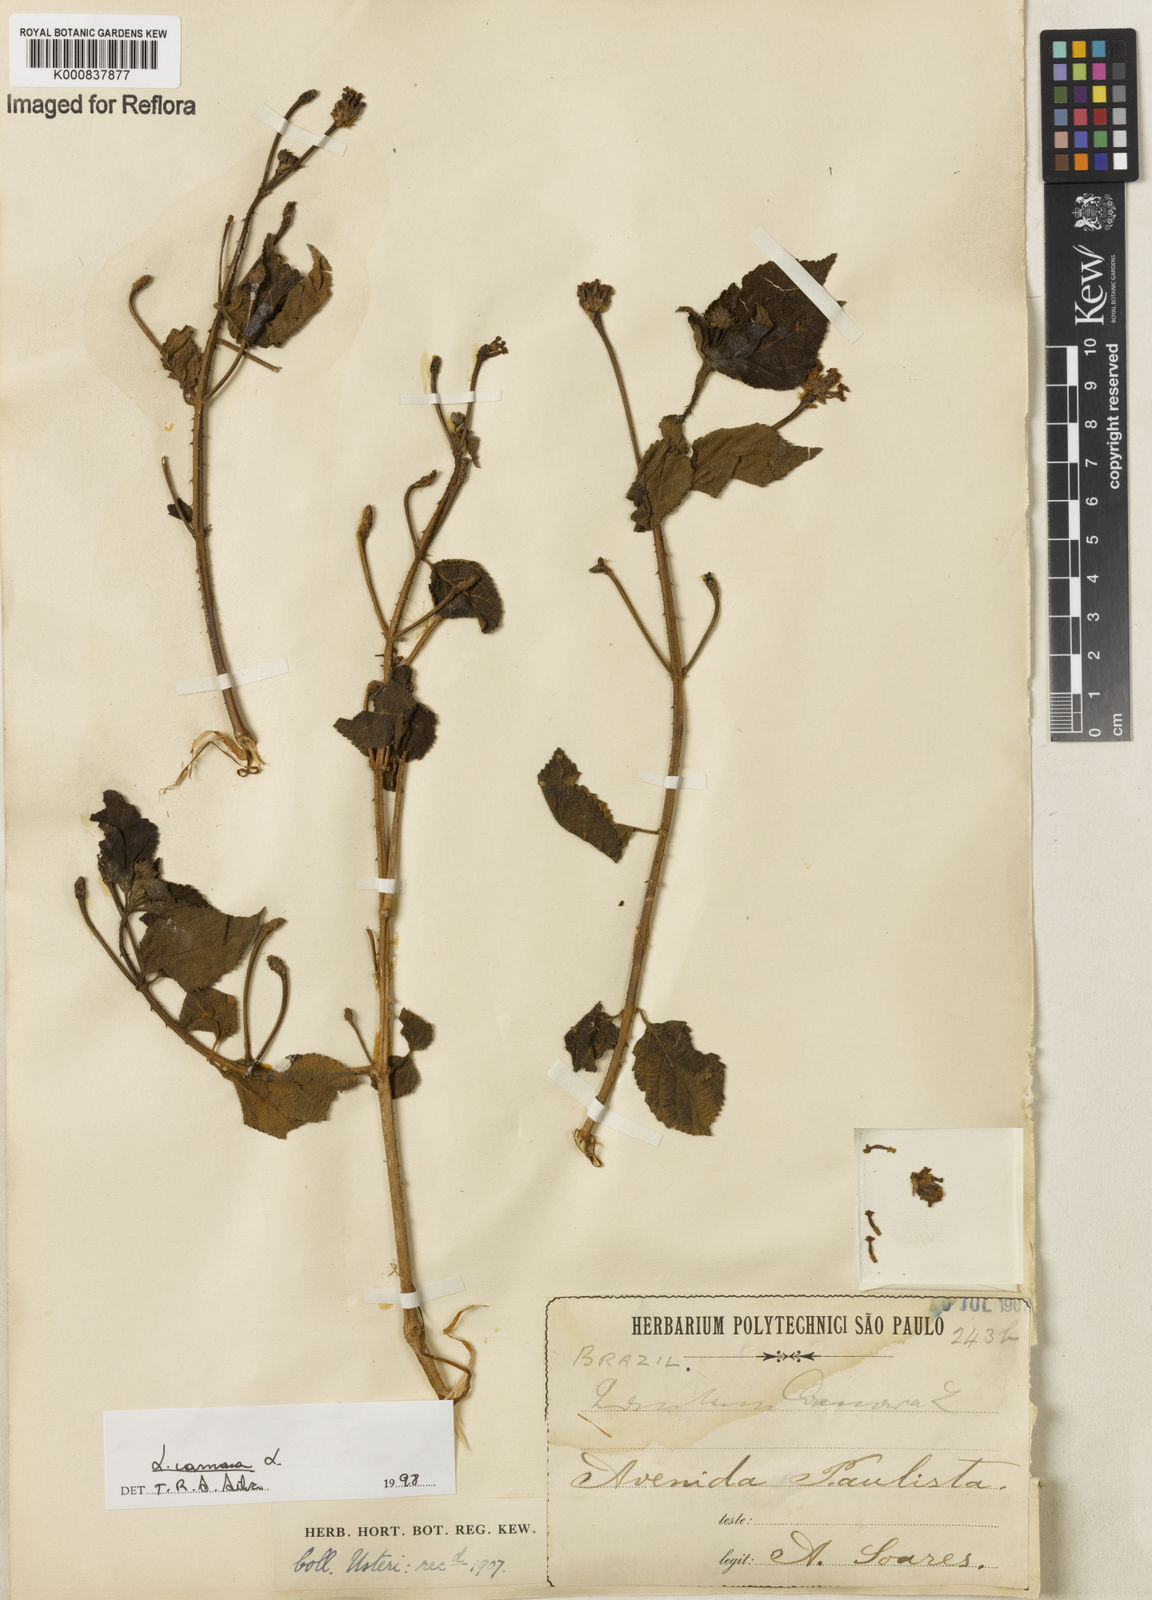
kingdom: Plantae
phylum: Tracheophyta
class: Magnoliopsida
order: Lamiales
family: Verbenaceae
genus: Lantana
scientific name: Lantana camara
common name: Lantana
